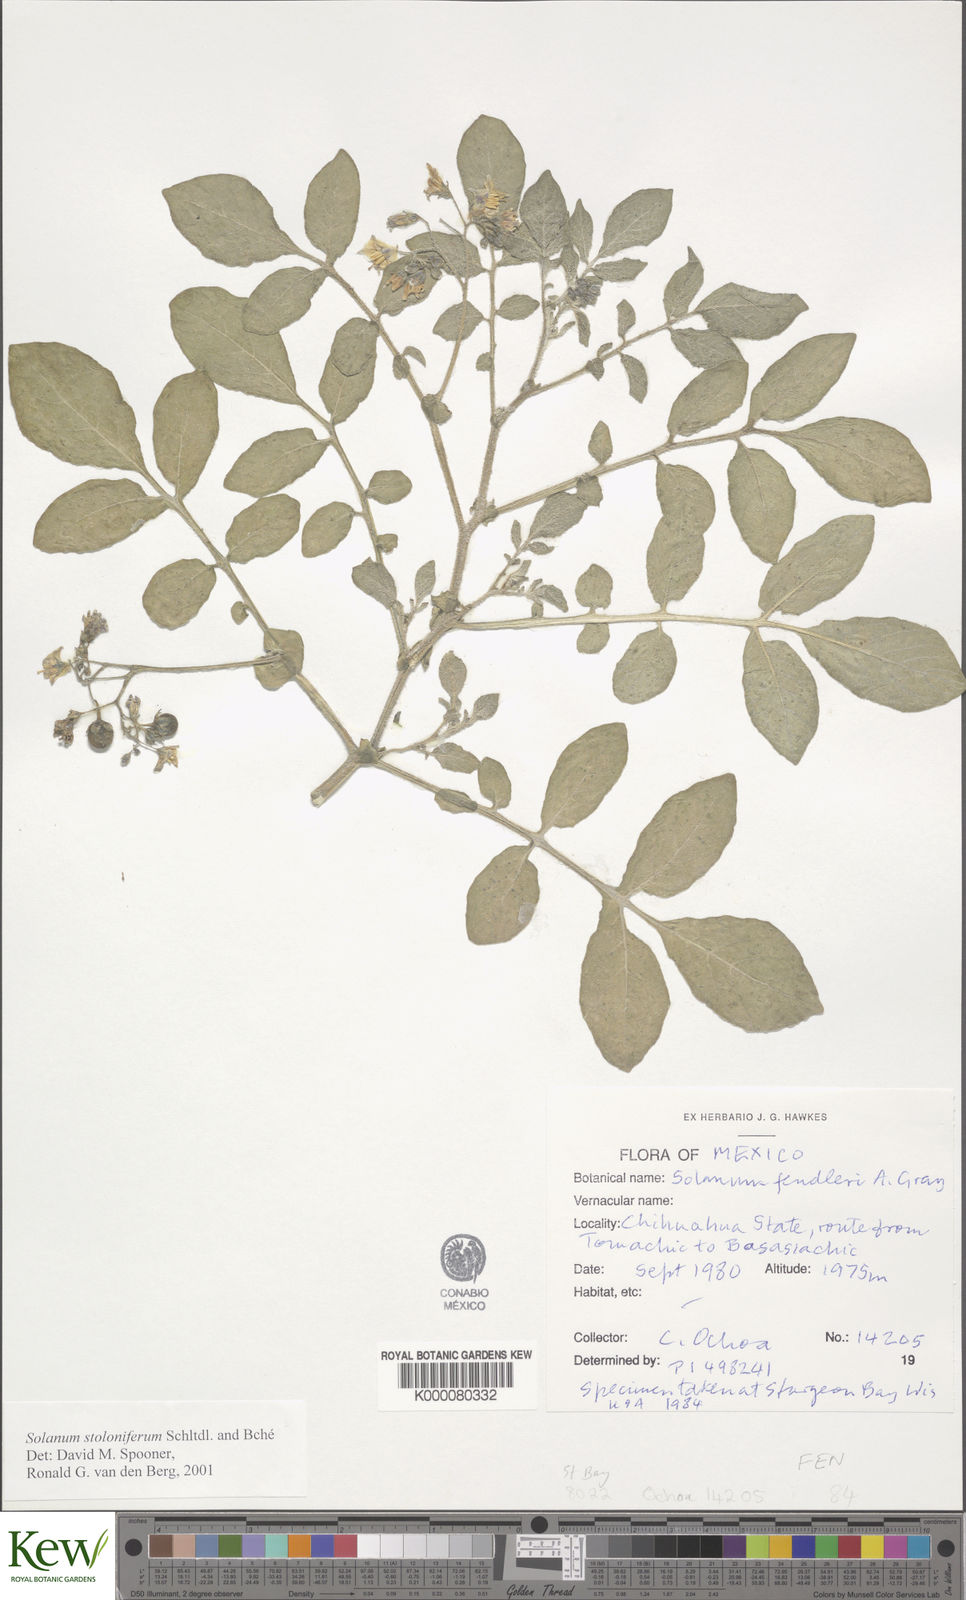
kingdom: Plantae
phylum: Tracheophyta
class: Magnoliopsida
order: Solanales
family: Solanaceae
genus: Solanum
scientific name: Solanum stoloniferum
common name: Fendler's nighshade
